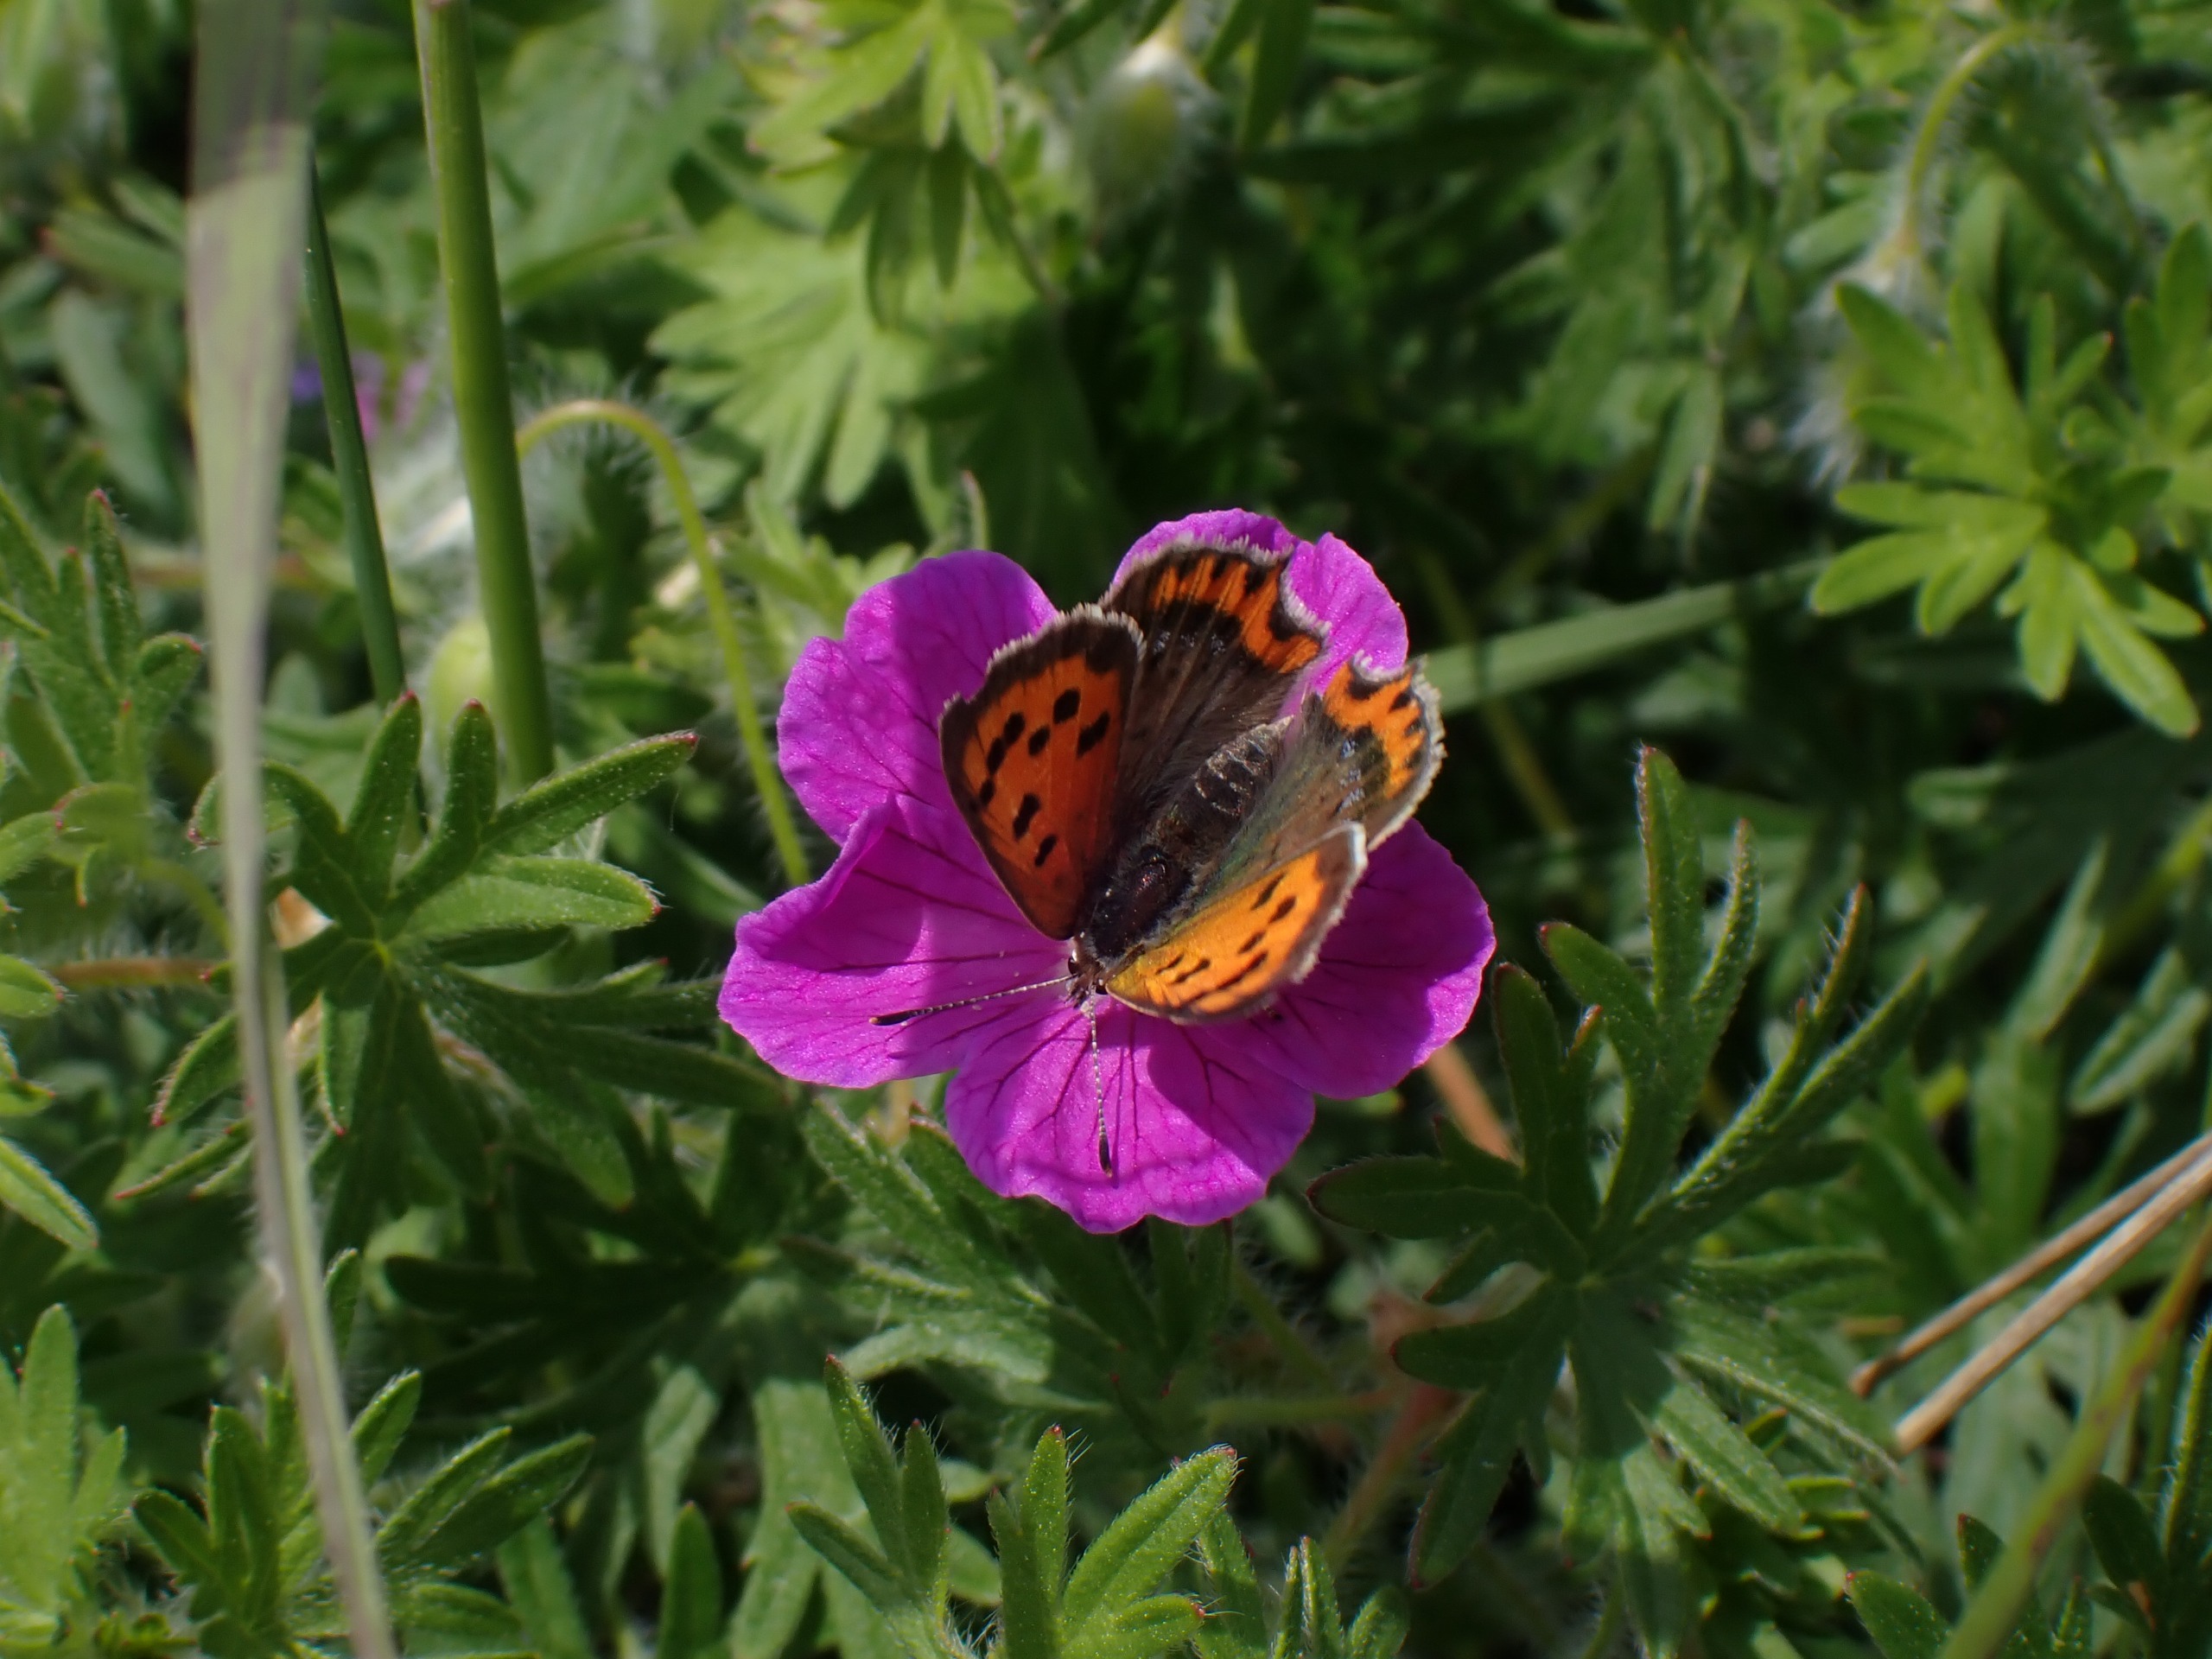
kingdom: Animalia
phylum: Arthropoda
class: Insecta
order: Lepidoptera
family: Lycaenidae
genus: Lycaena
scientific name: Lycaena phlaeas
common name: Lille ildfugl
